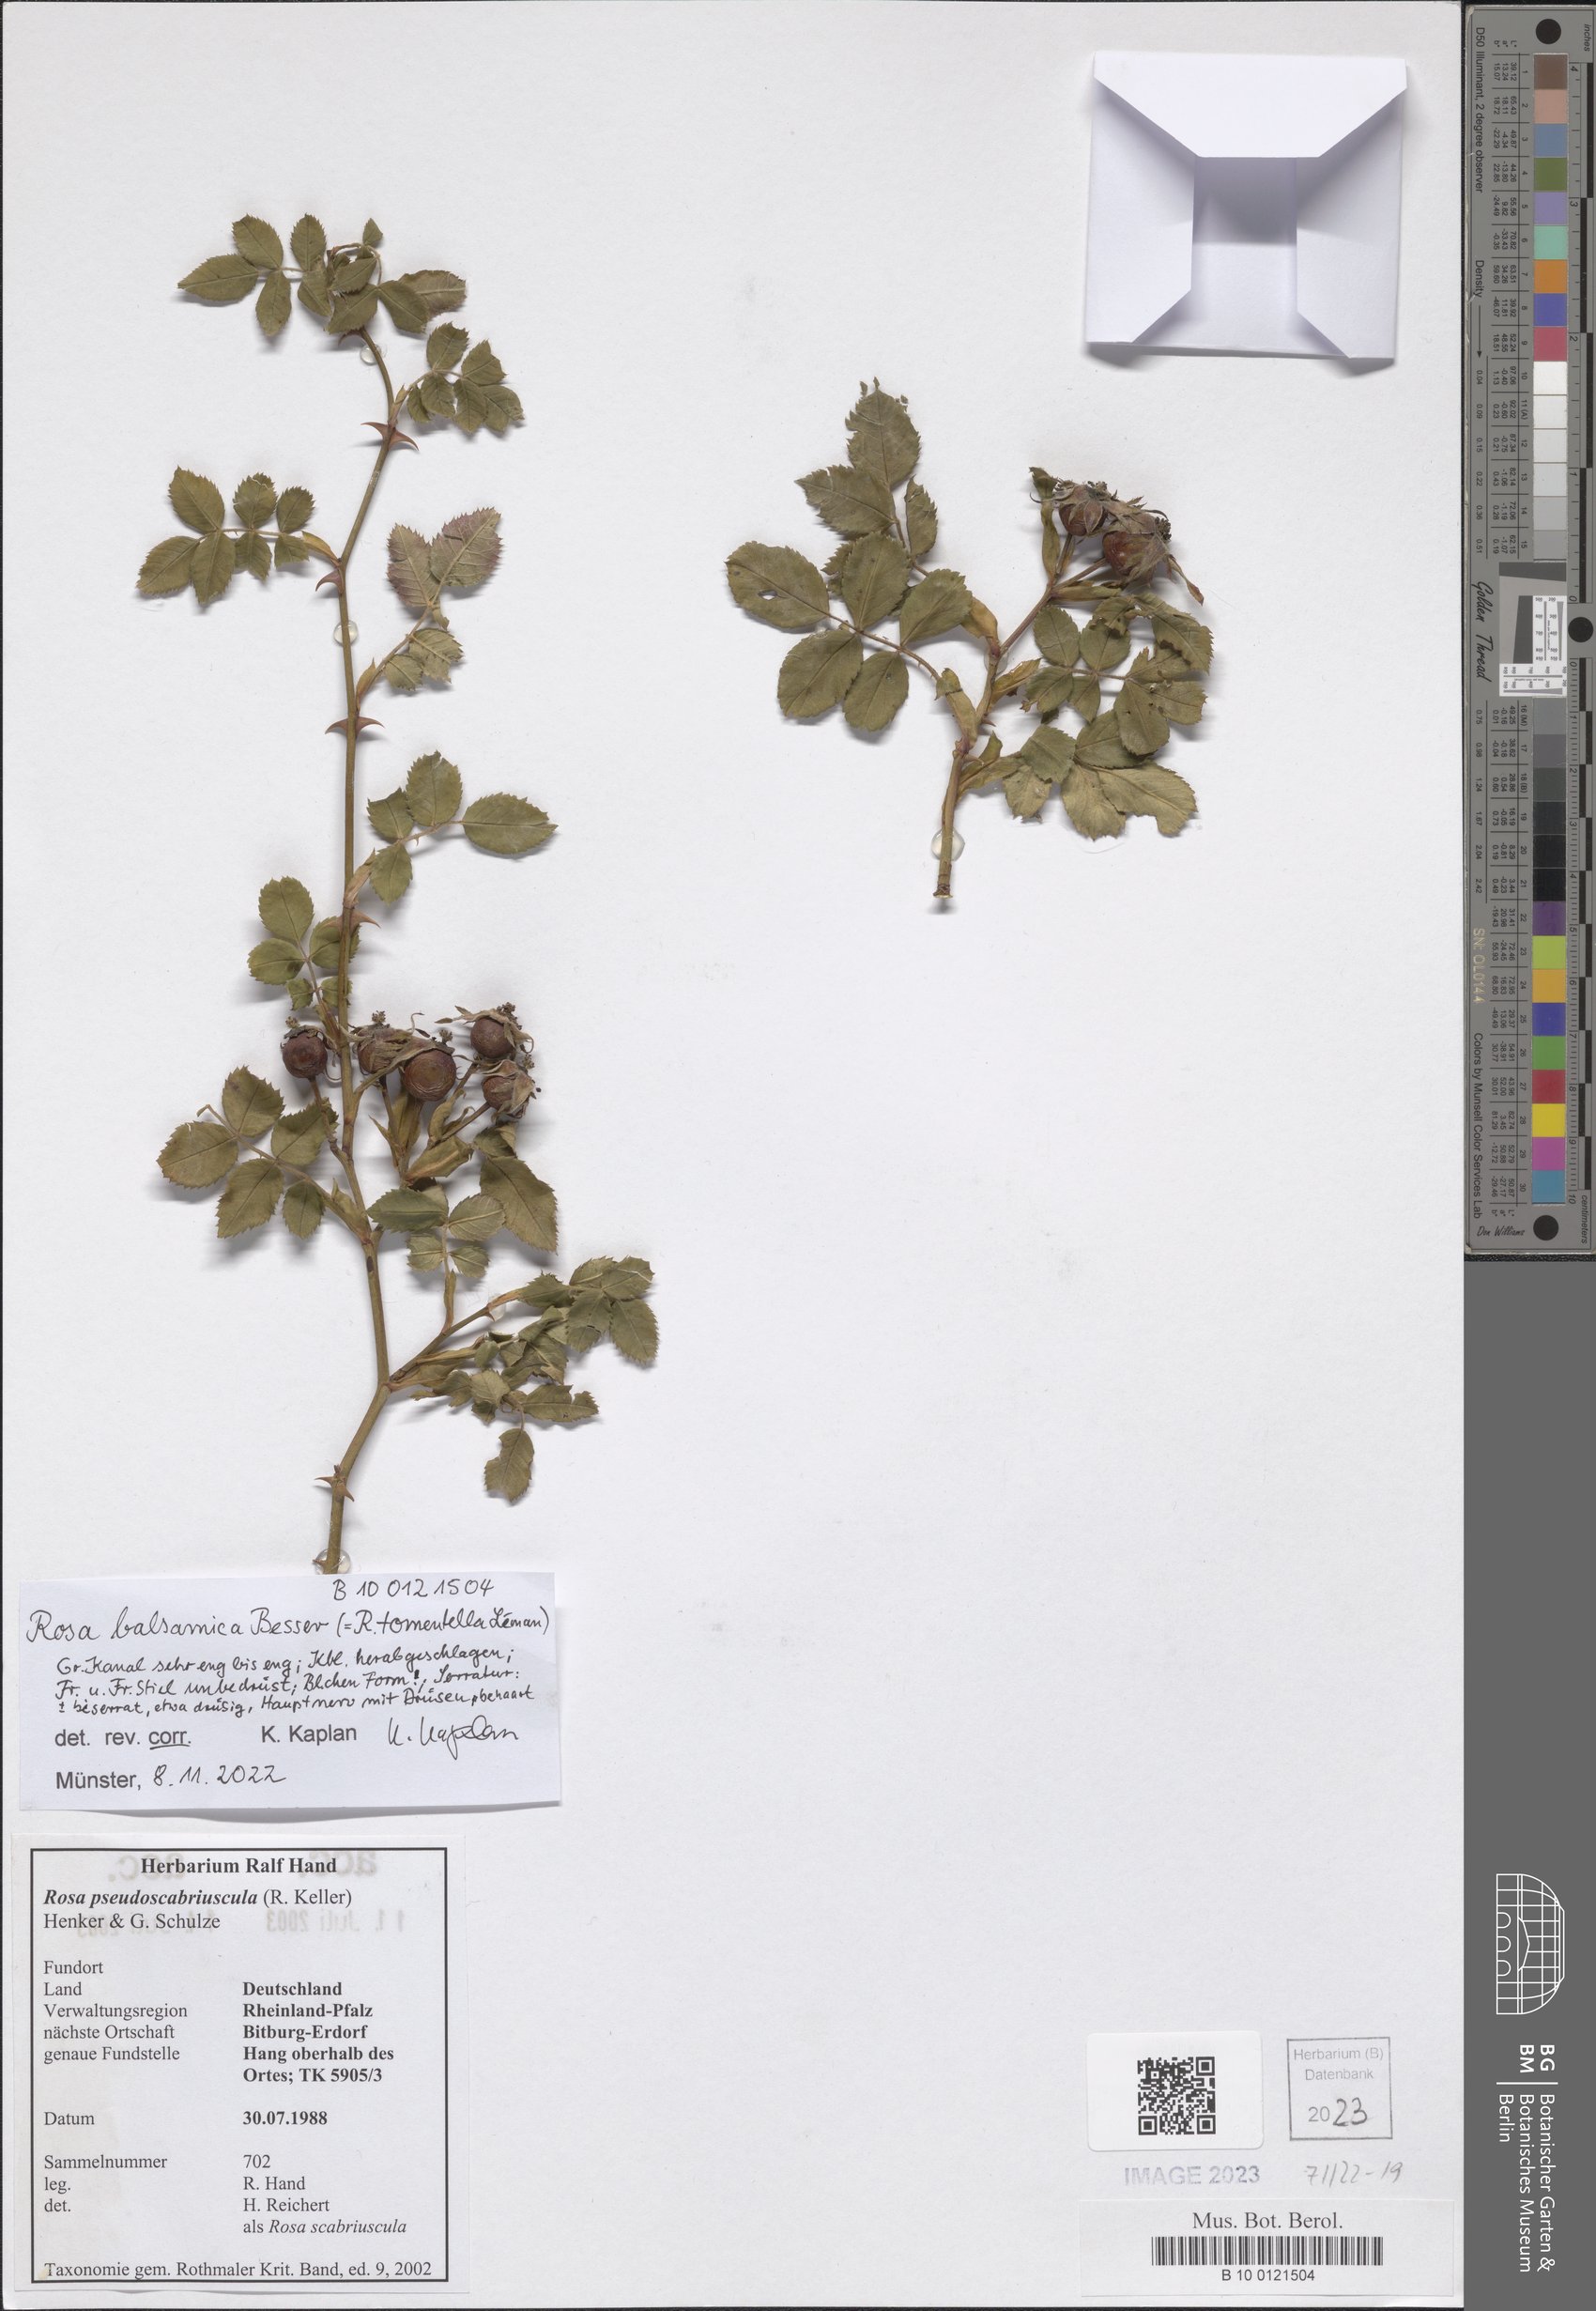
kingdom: Plantae
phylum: Tracheophyta
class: Magnoliopsida
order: Rosales
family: Rosaceae
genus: Rosa
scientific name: Rosa balsamica
